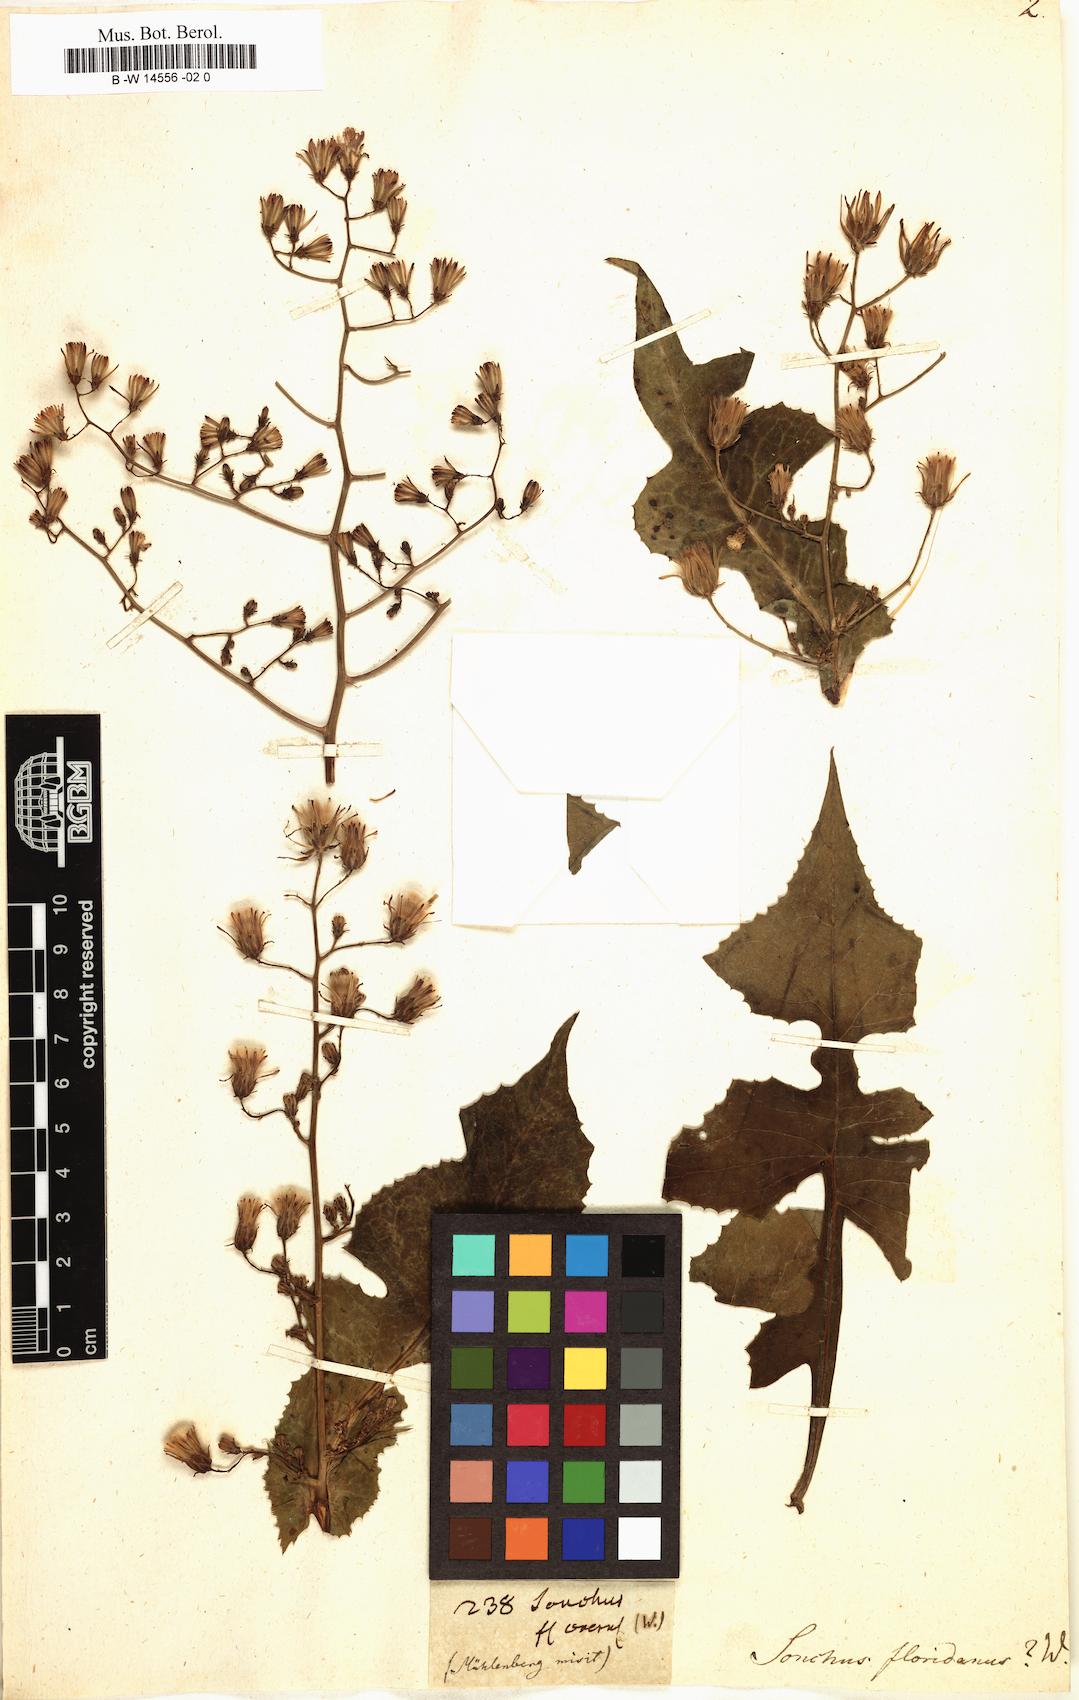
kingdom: Plantae
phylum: Tracheophyta
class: Magnoliopsida
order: Asterales
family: Asteraceae
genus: Sonchus
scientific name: Sonchus floridanus
